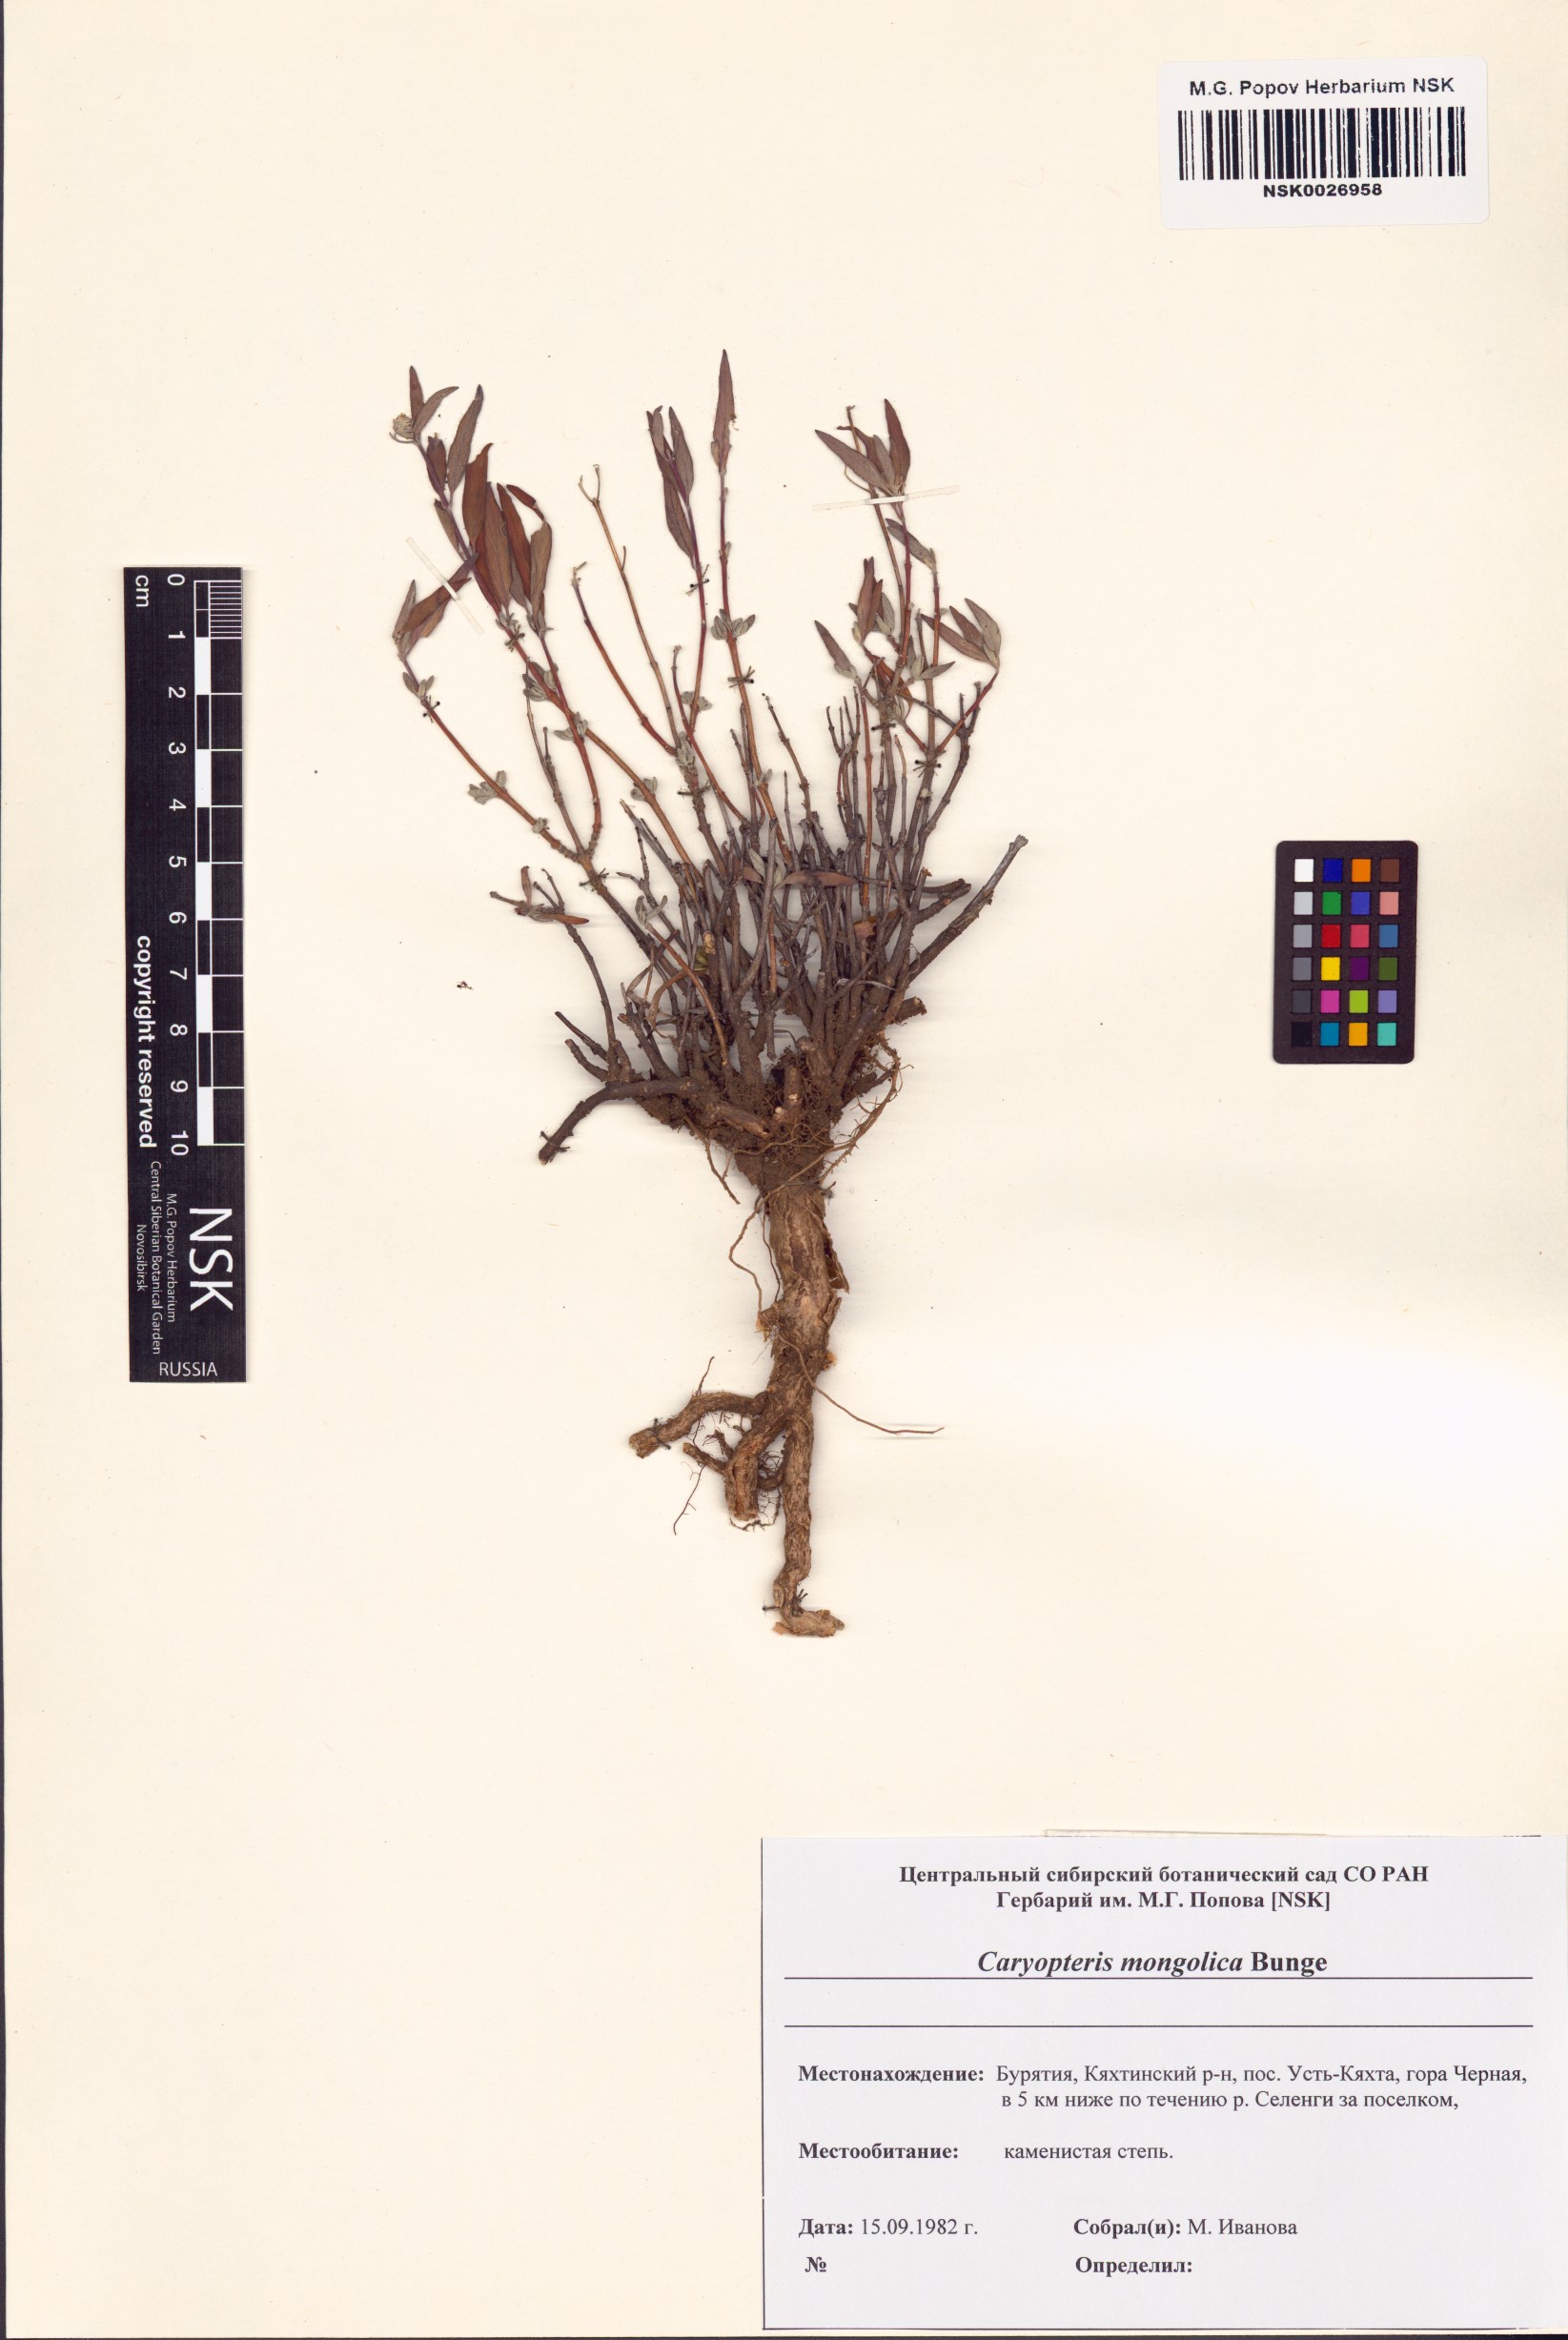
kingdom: Plantae
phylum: Tracheophyta
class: Magnoliopsida
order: Lamiales
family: Lamiaceae
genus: Caryopteris
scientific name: Caryopteris mongholica
